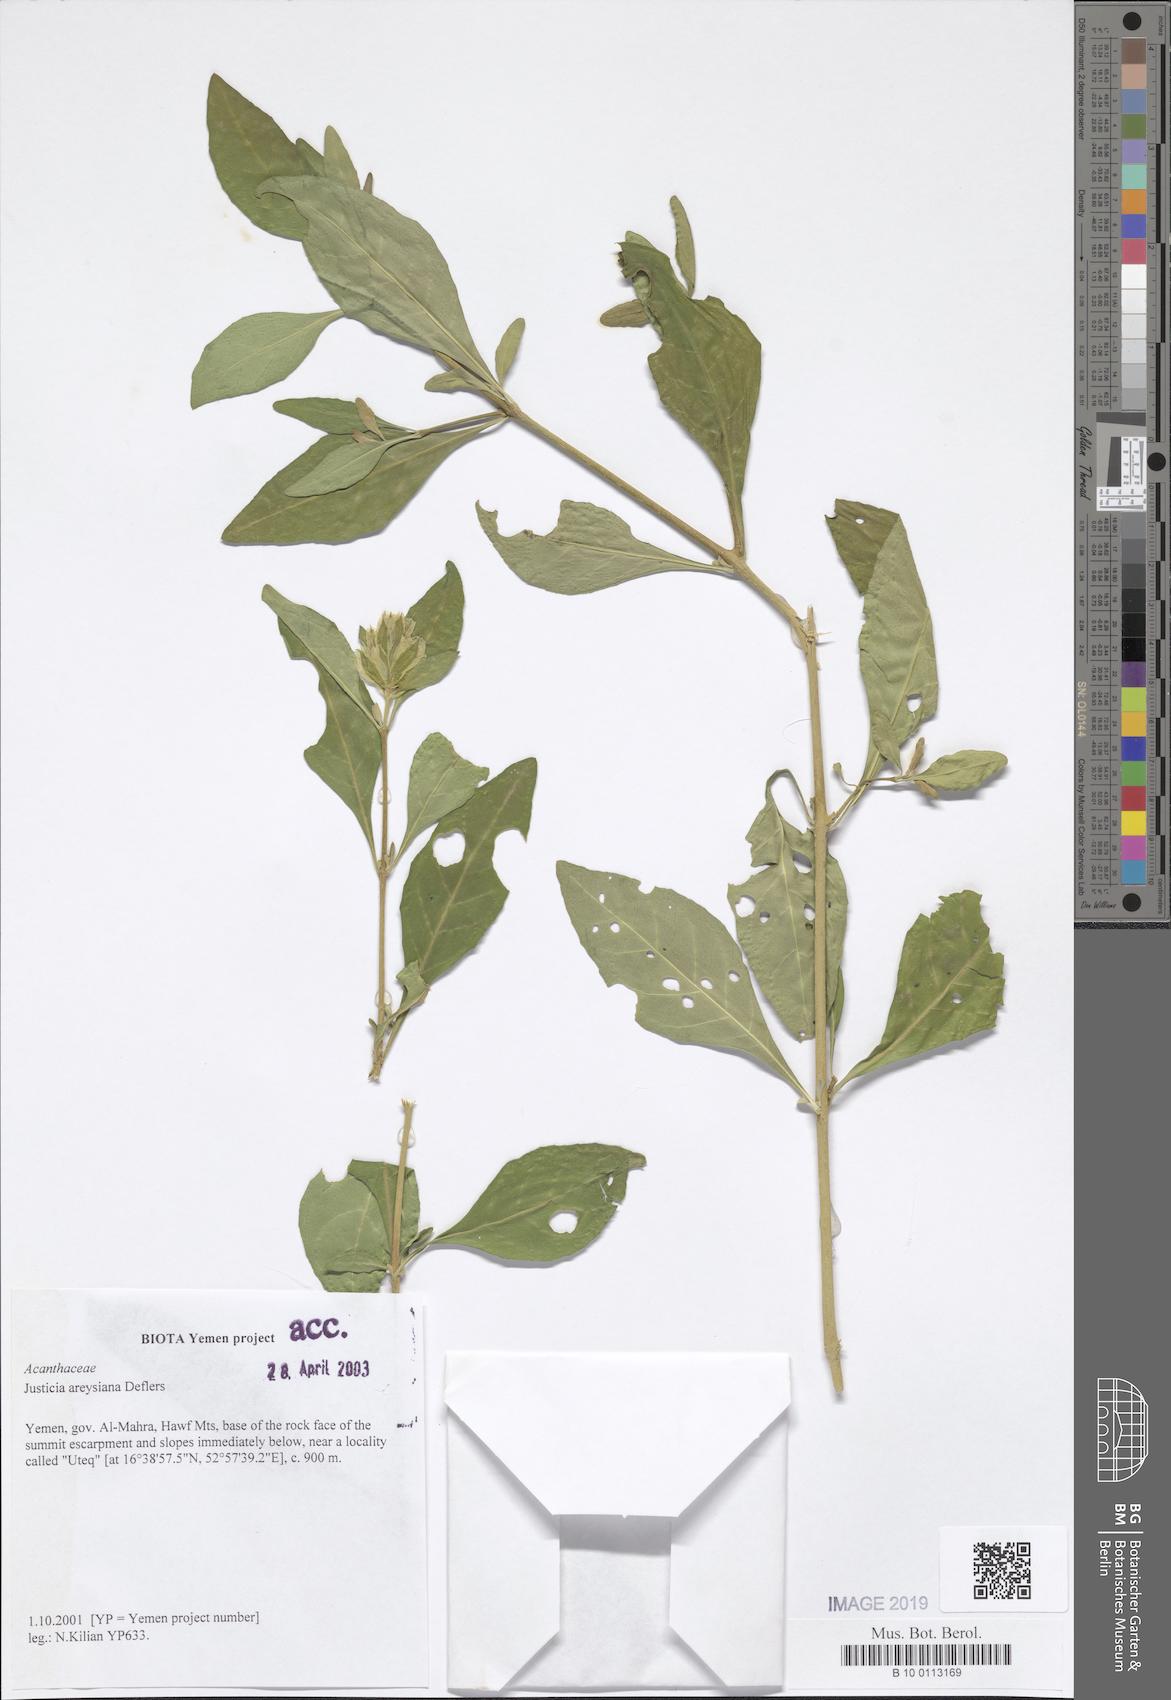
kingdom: Plantae
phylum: Tracheophyta
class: Magnoliopsida
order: Lamiales
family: Acanthaceae
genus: Justicia
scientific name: Justicia areysiana
